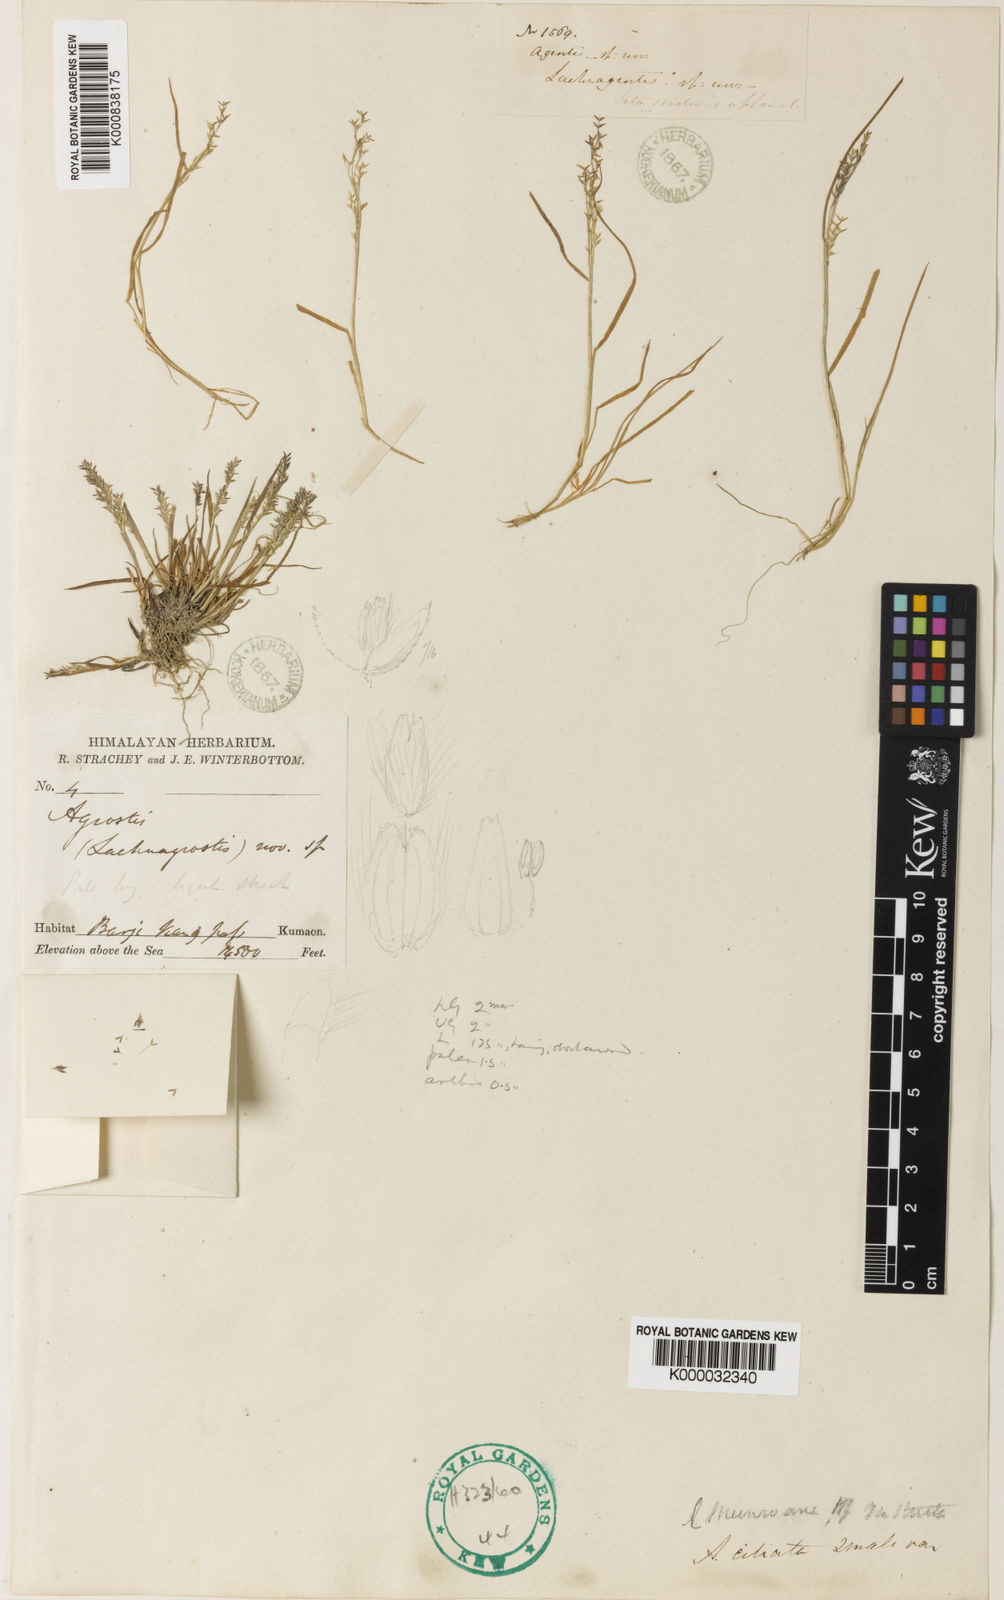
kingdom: Plantae
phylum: Tracheophyta
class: Liliopsida
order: Poales
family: Poaceae
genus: Agrostis
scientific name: Agrostis munroana
